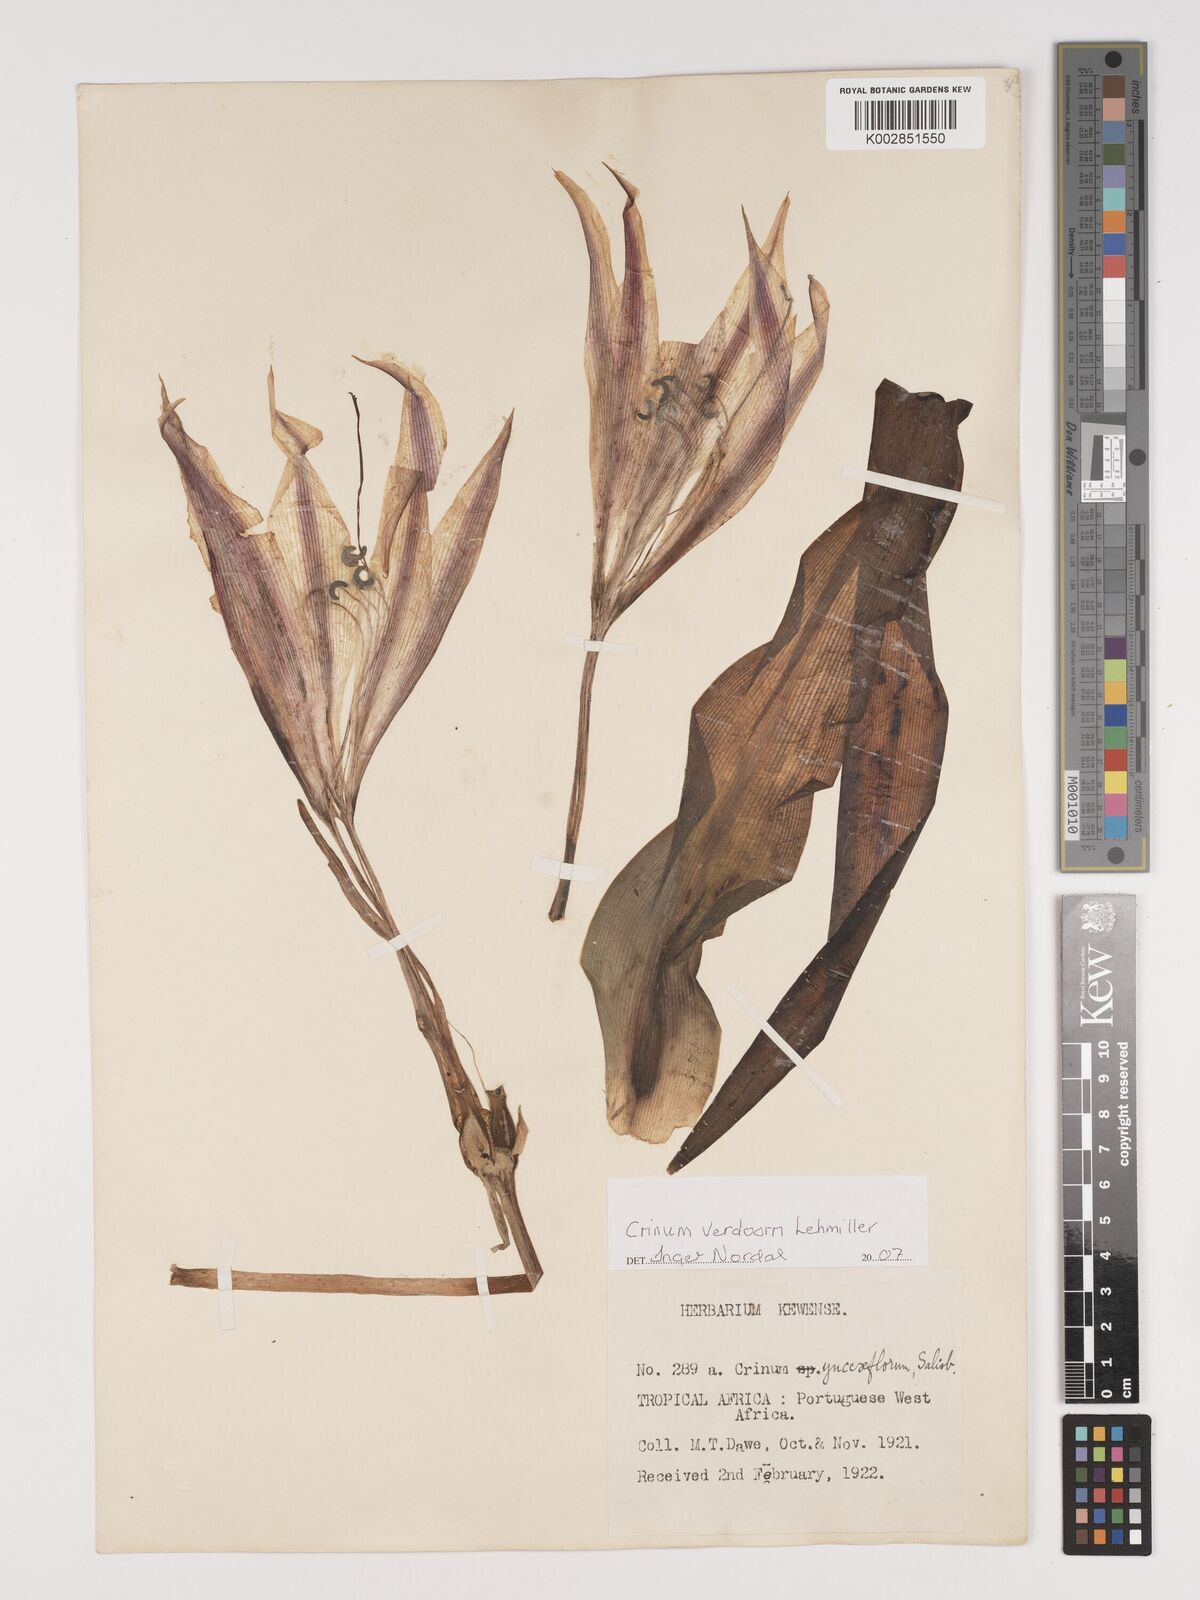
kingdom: Plantae
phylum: Tracheophyta
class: Liliopsida
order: Asparagales
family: Amaryllidaceae
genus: Crinum
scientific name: Crinum verdoorniae
